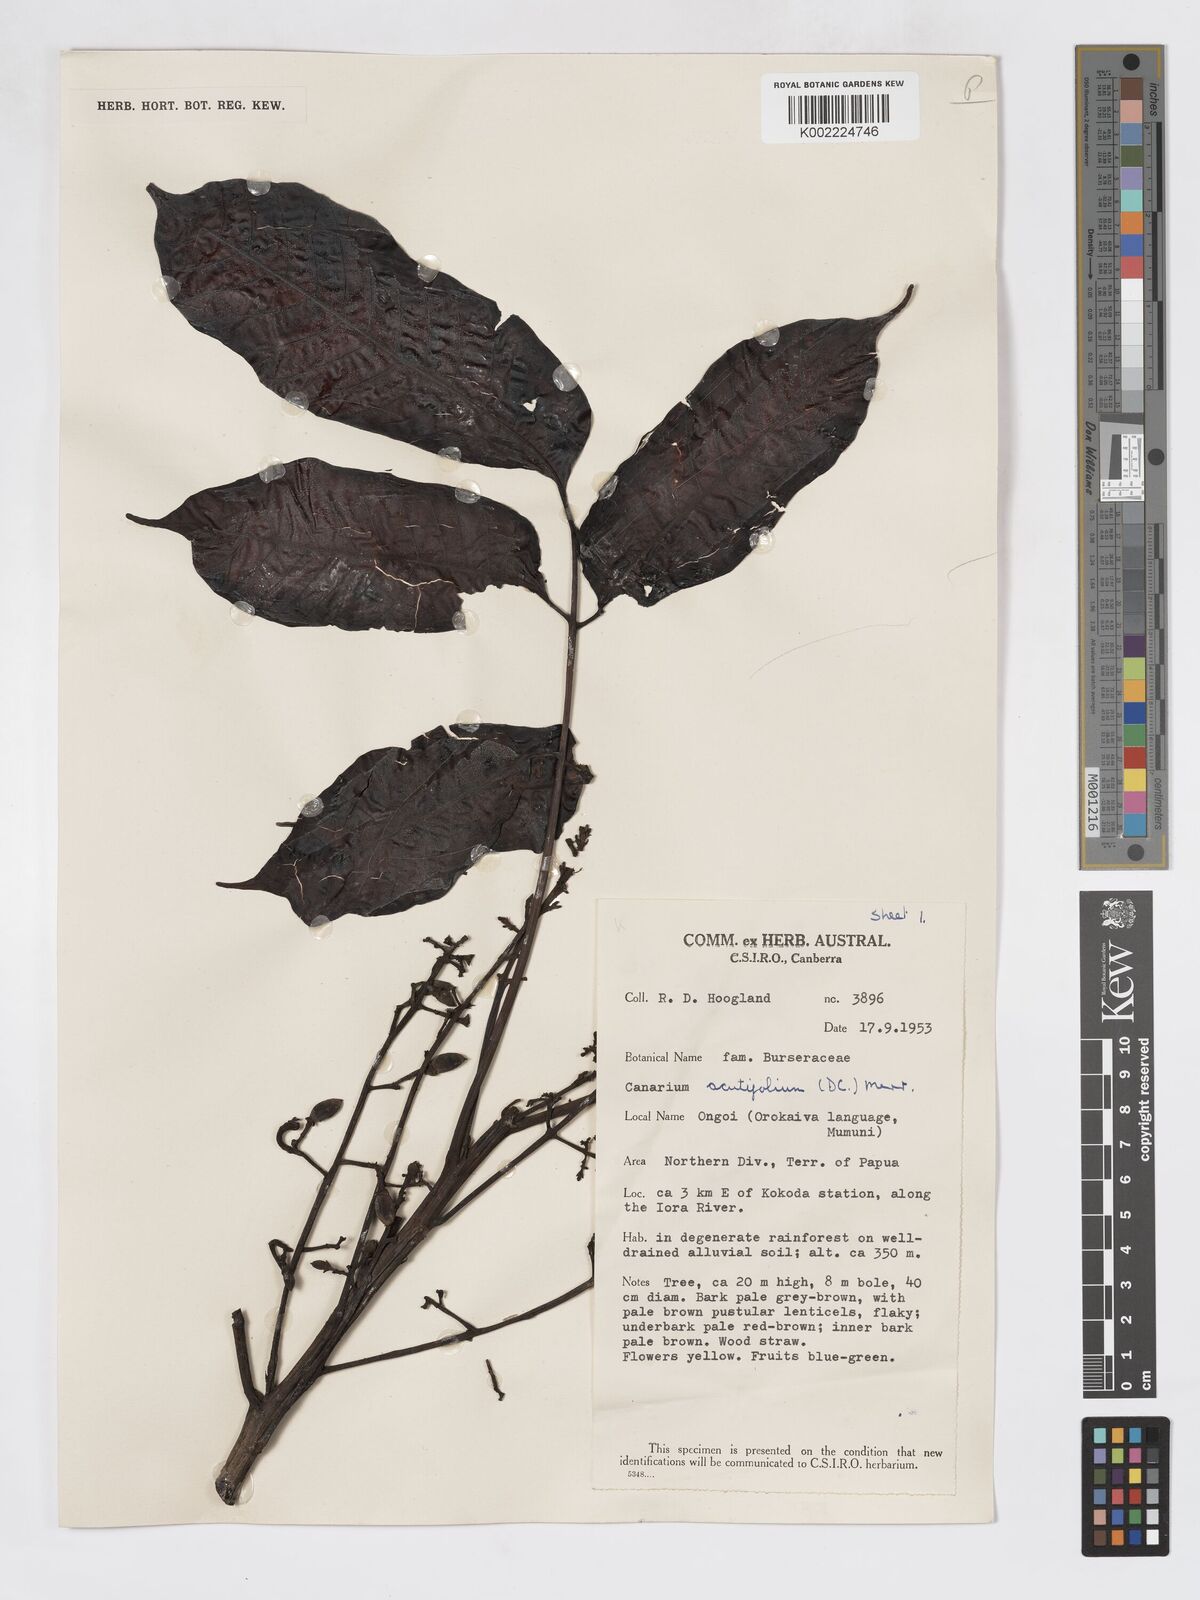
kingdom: Plantae
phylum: Tracheophyta
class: Magnoliopsida
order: Sapindales
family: Burseraceae
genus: Canarium
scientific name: Canarium acutifolium
